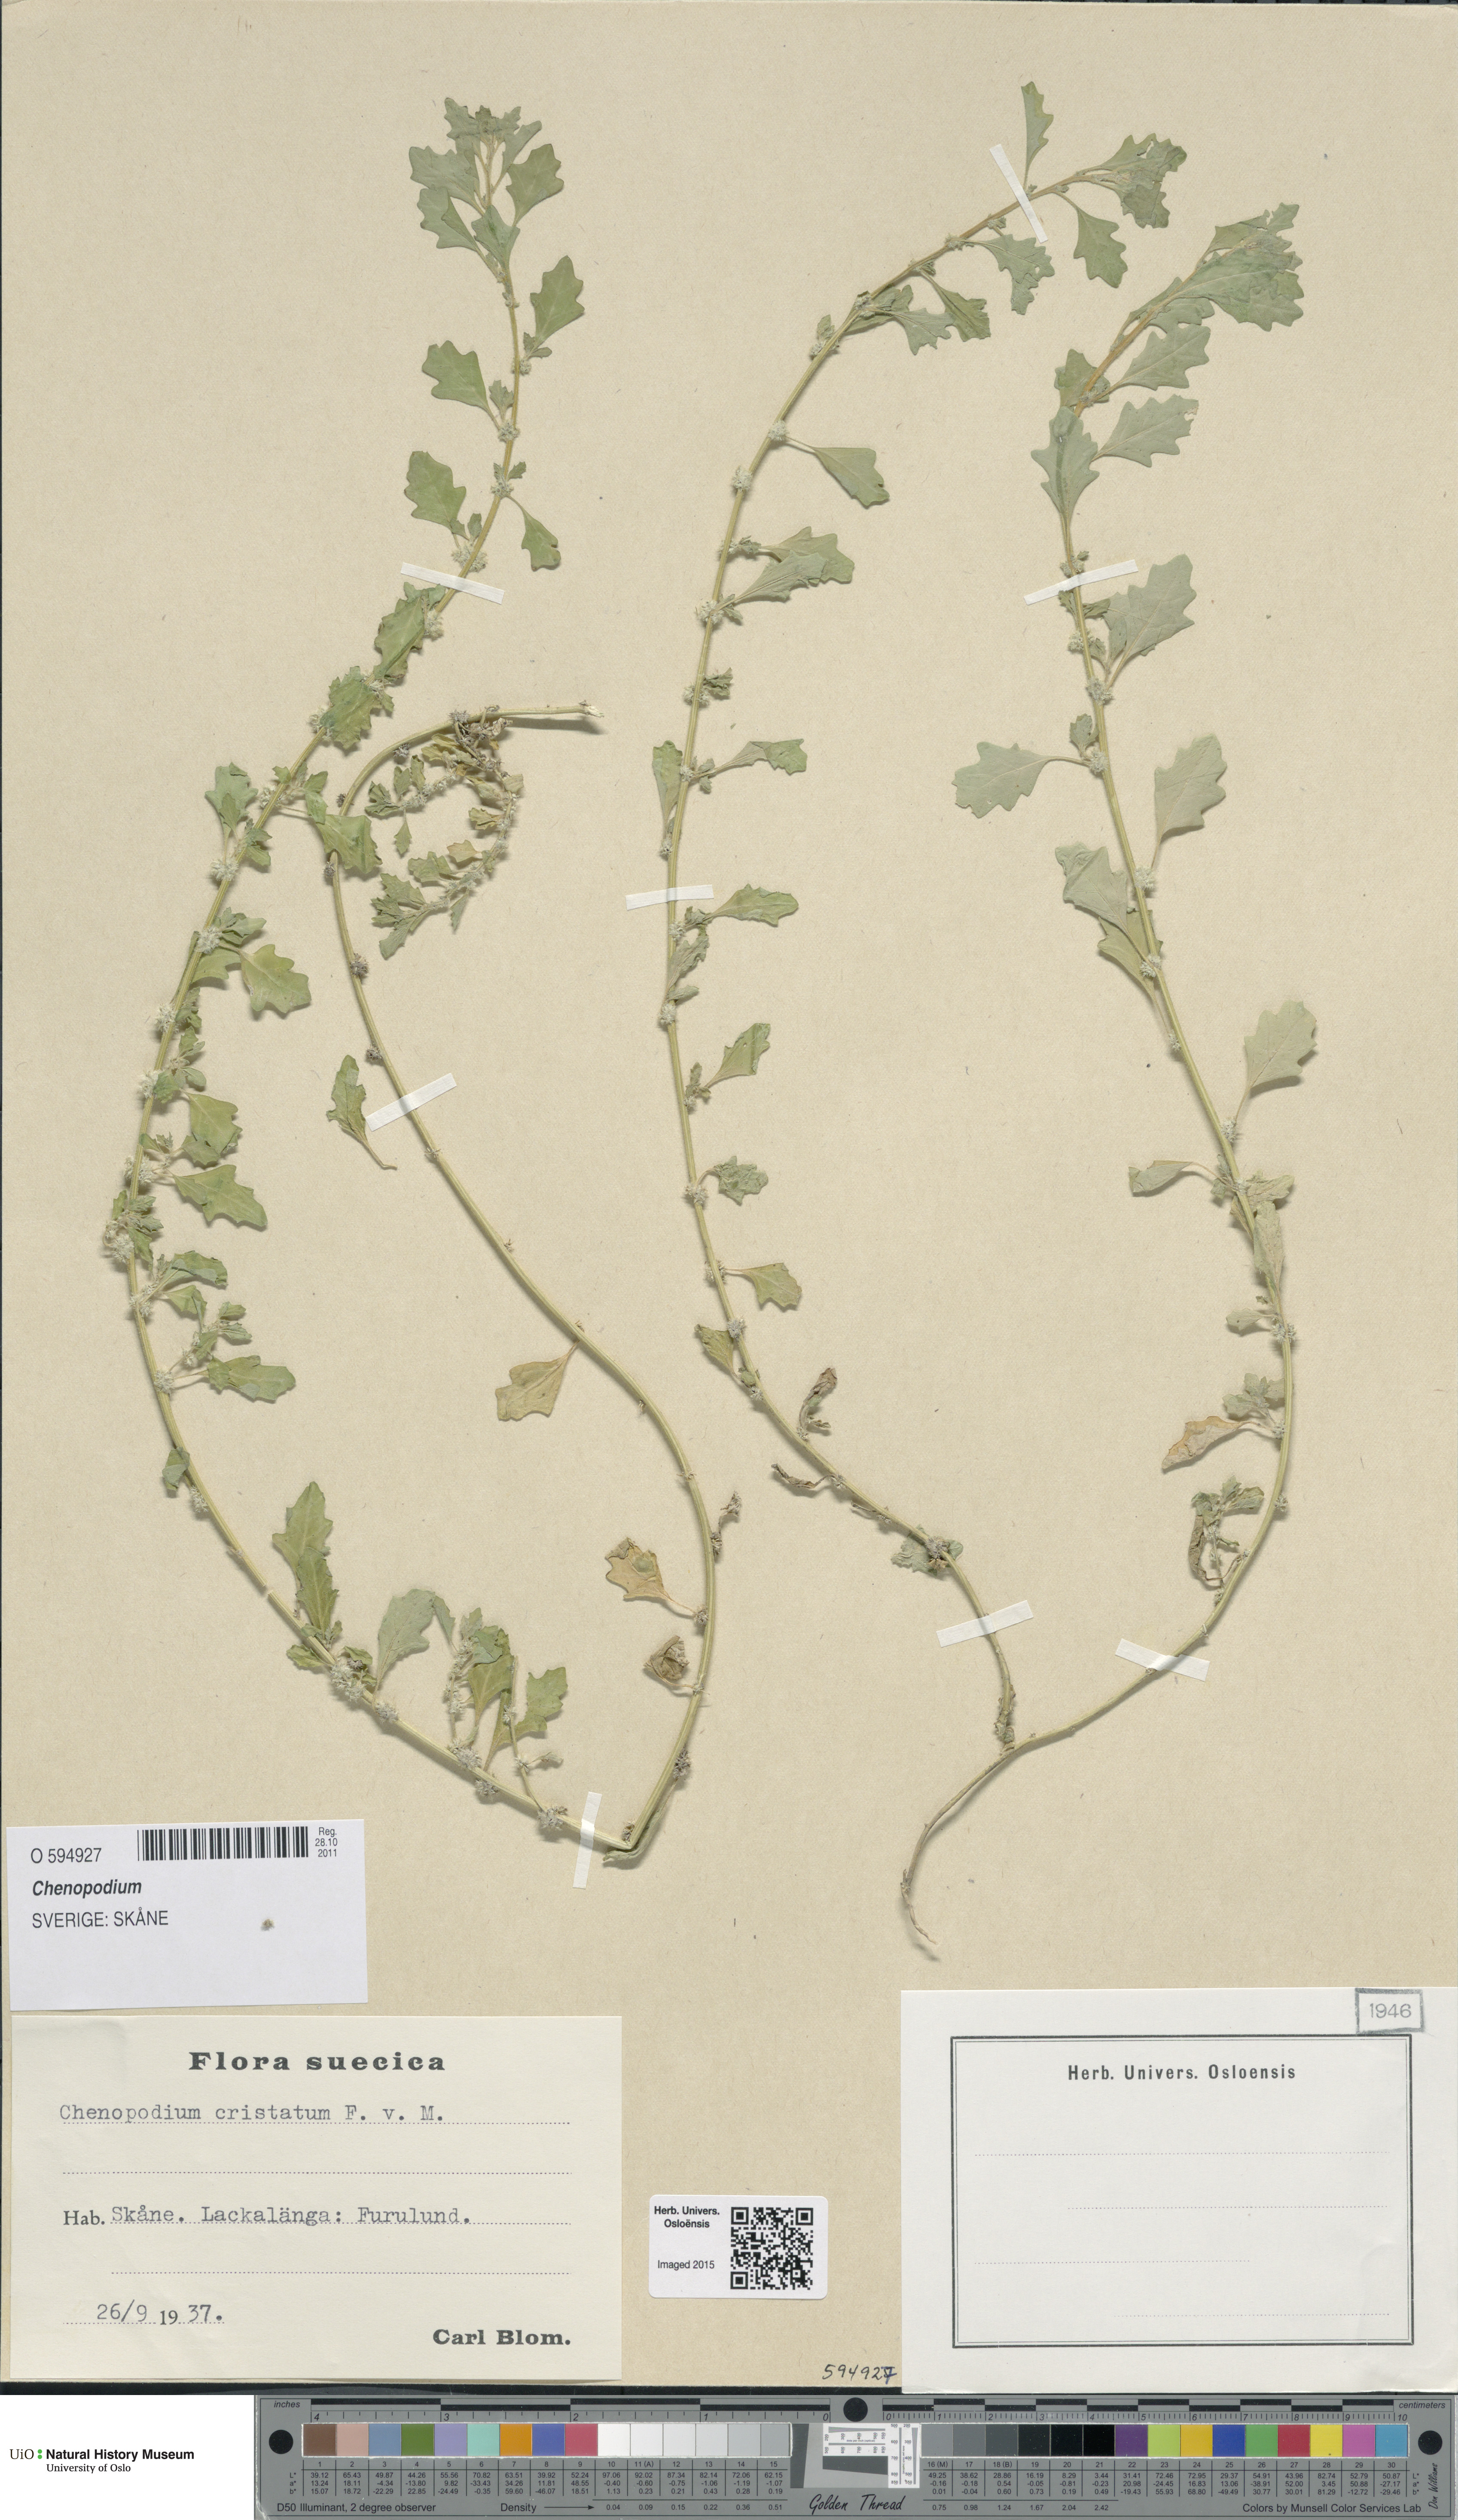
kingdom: Plantae
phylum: Tracheophyta
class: Magnoliopsida
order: Caryophyllales
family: Amaranthaceae
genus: Chenopodium
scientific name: Chenopodium
